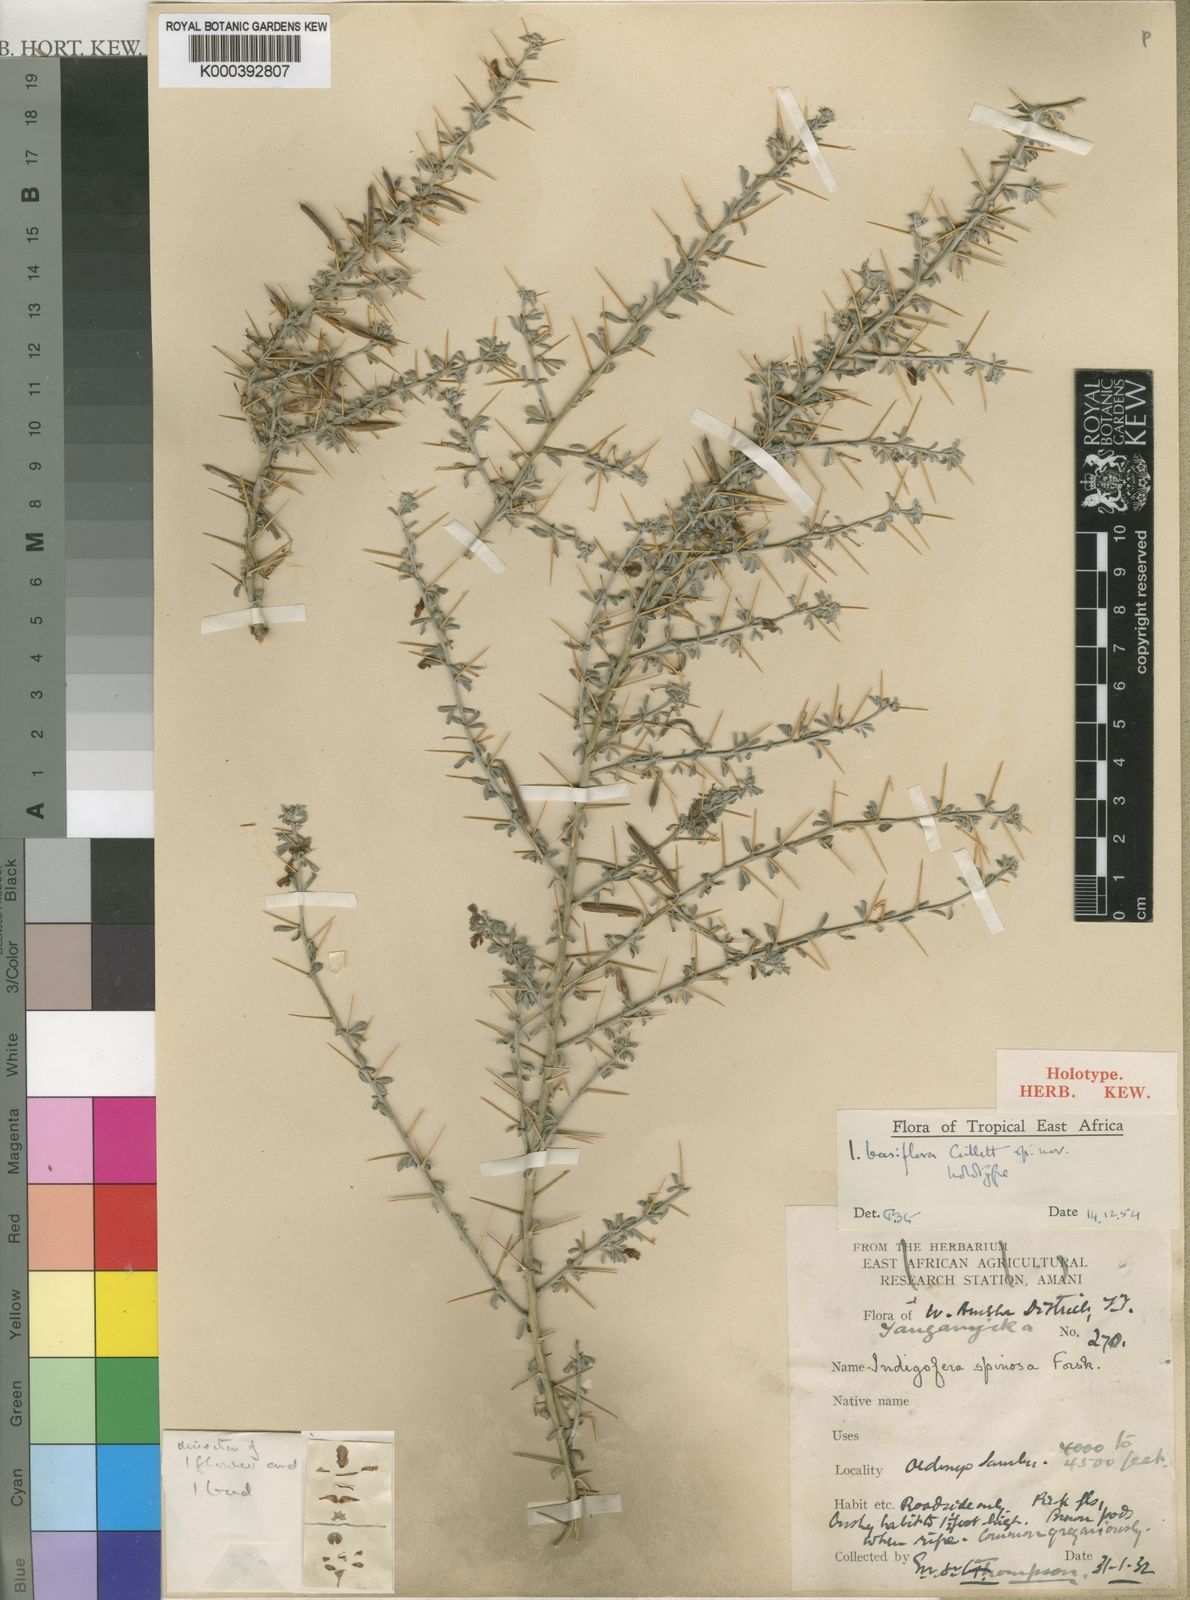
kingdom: Plantae
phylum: Tracheophyta
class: Magnoliopsida
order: Fabales
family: Fabaceae
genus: Indigofera
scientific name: Indigofera basiflora
